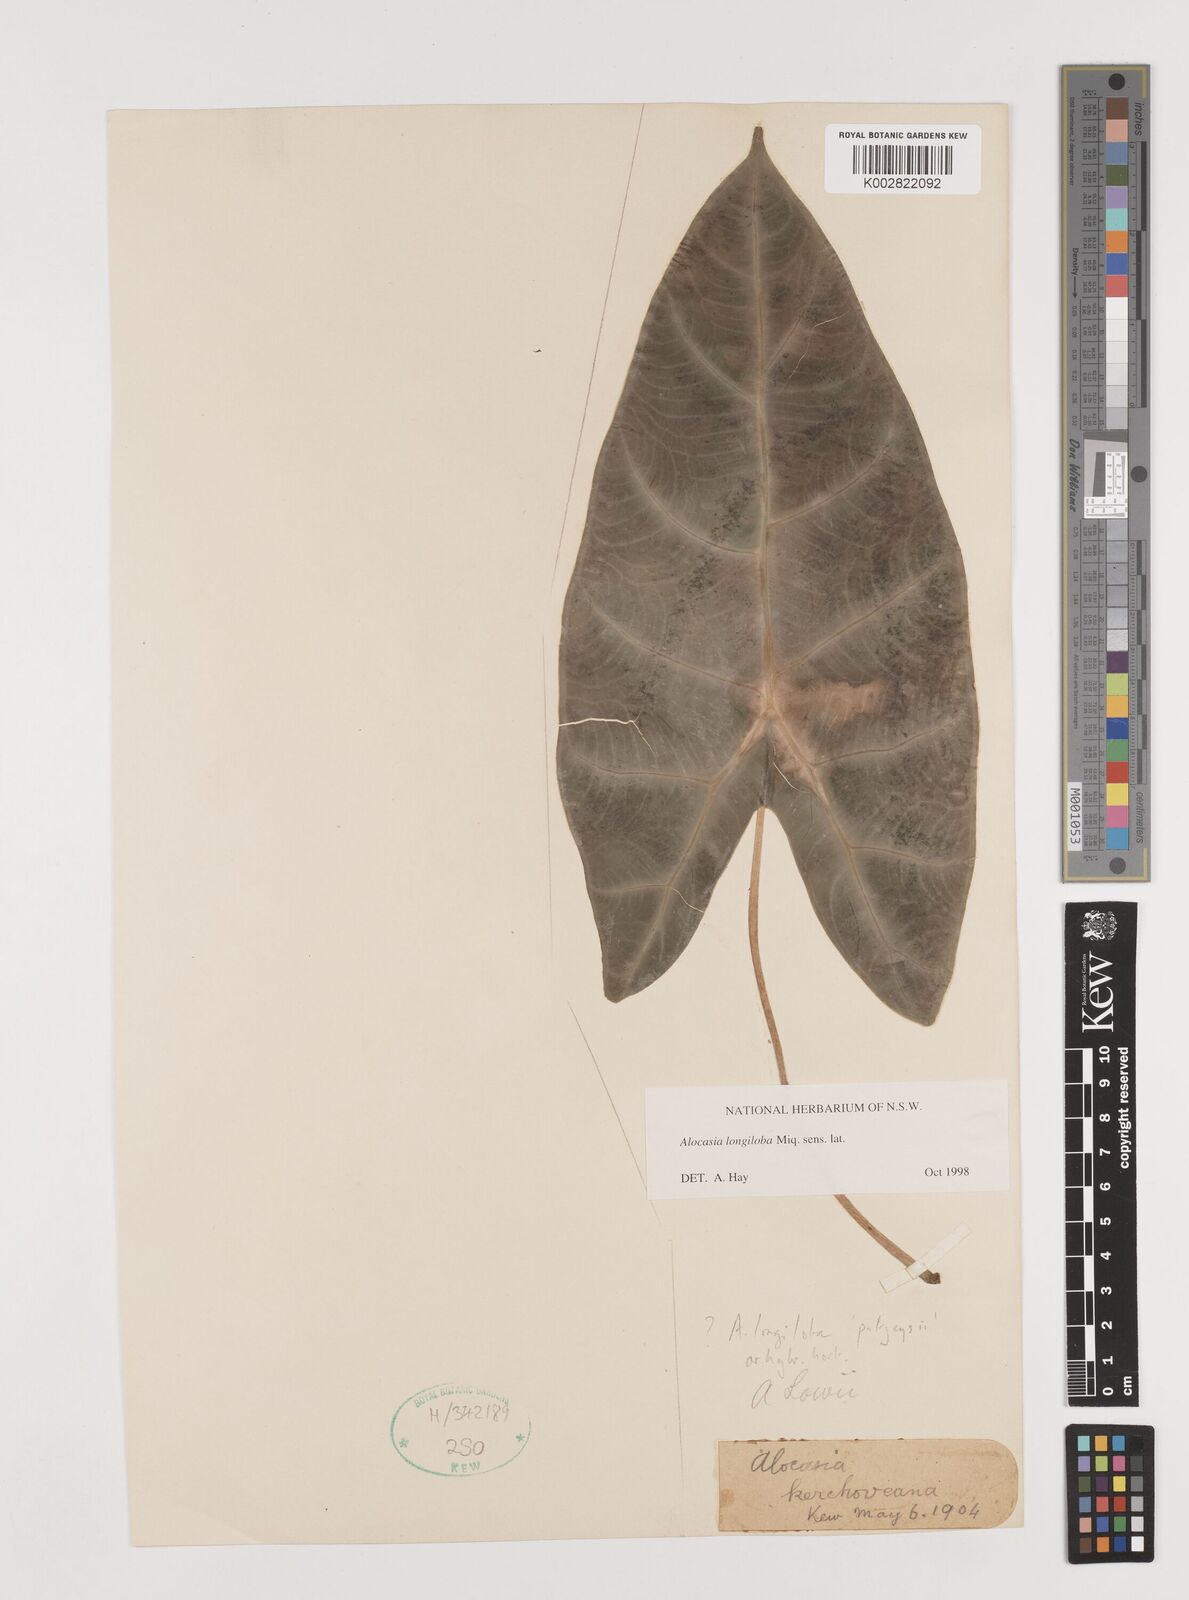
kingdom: Plantae
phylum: Tracheophyta
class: Liliopsida
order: Alismatales
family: Araceae
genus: Alocasia
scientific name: Alocasia longiloba
